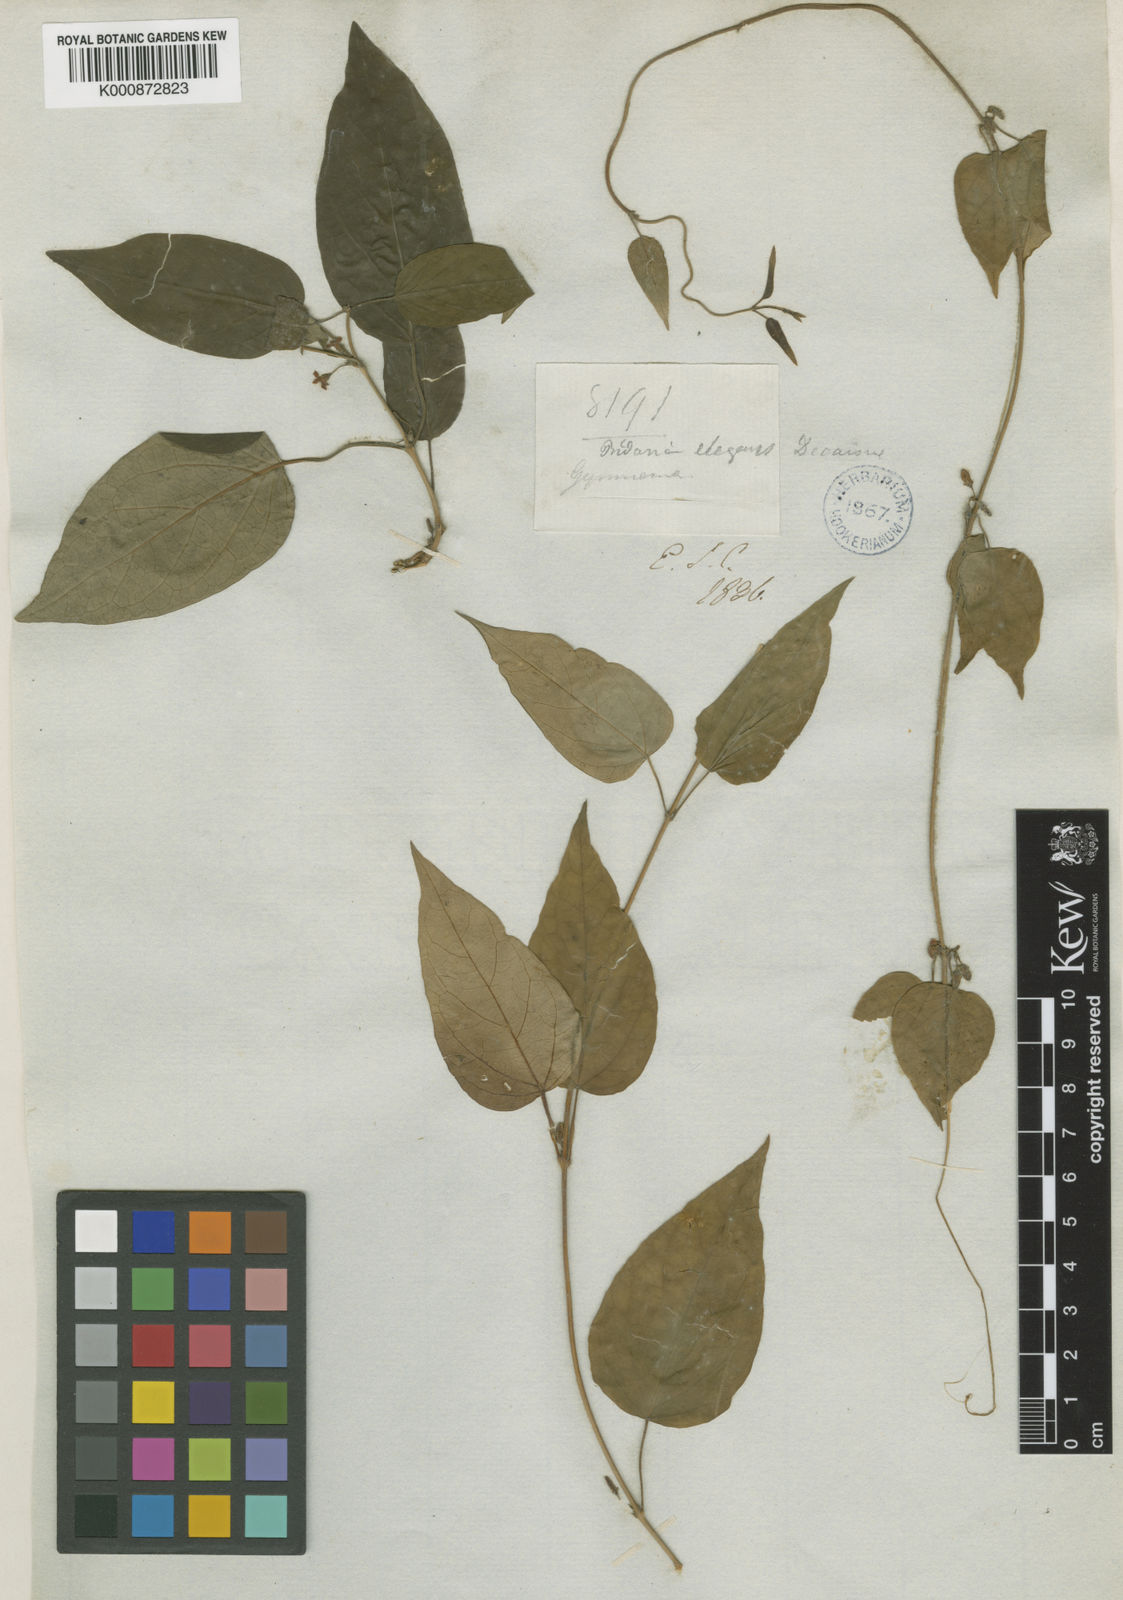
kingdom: Plantae
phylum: Tracheophyta
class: Magnoliopsida
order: Gentianales
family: Apocynaceae
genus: Gymnema
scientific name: Gymnema elegans
